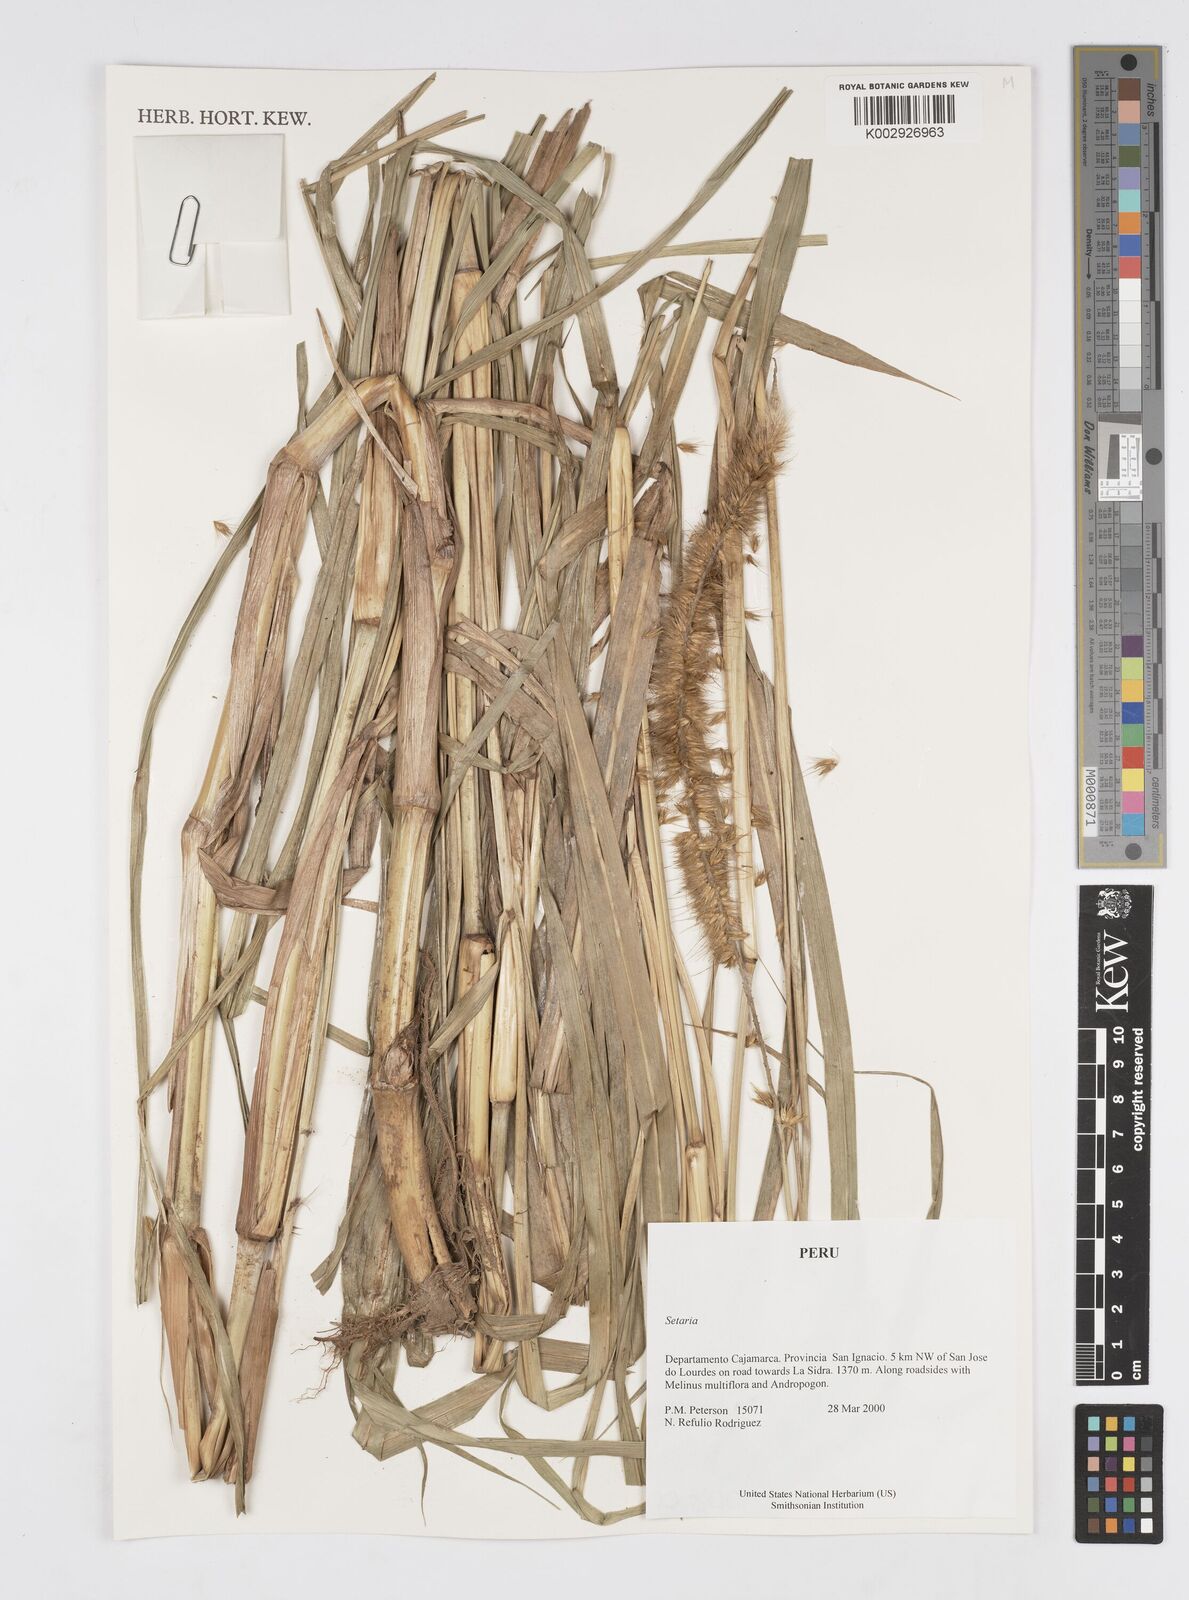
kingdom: Plantae
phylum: Tracheophyta
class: Liliopsida
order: Poales
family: Poaceae
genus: Cenchrus
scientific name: Cenchrus purpureus
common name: Elephant grass
